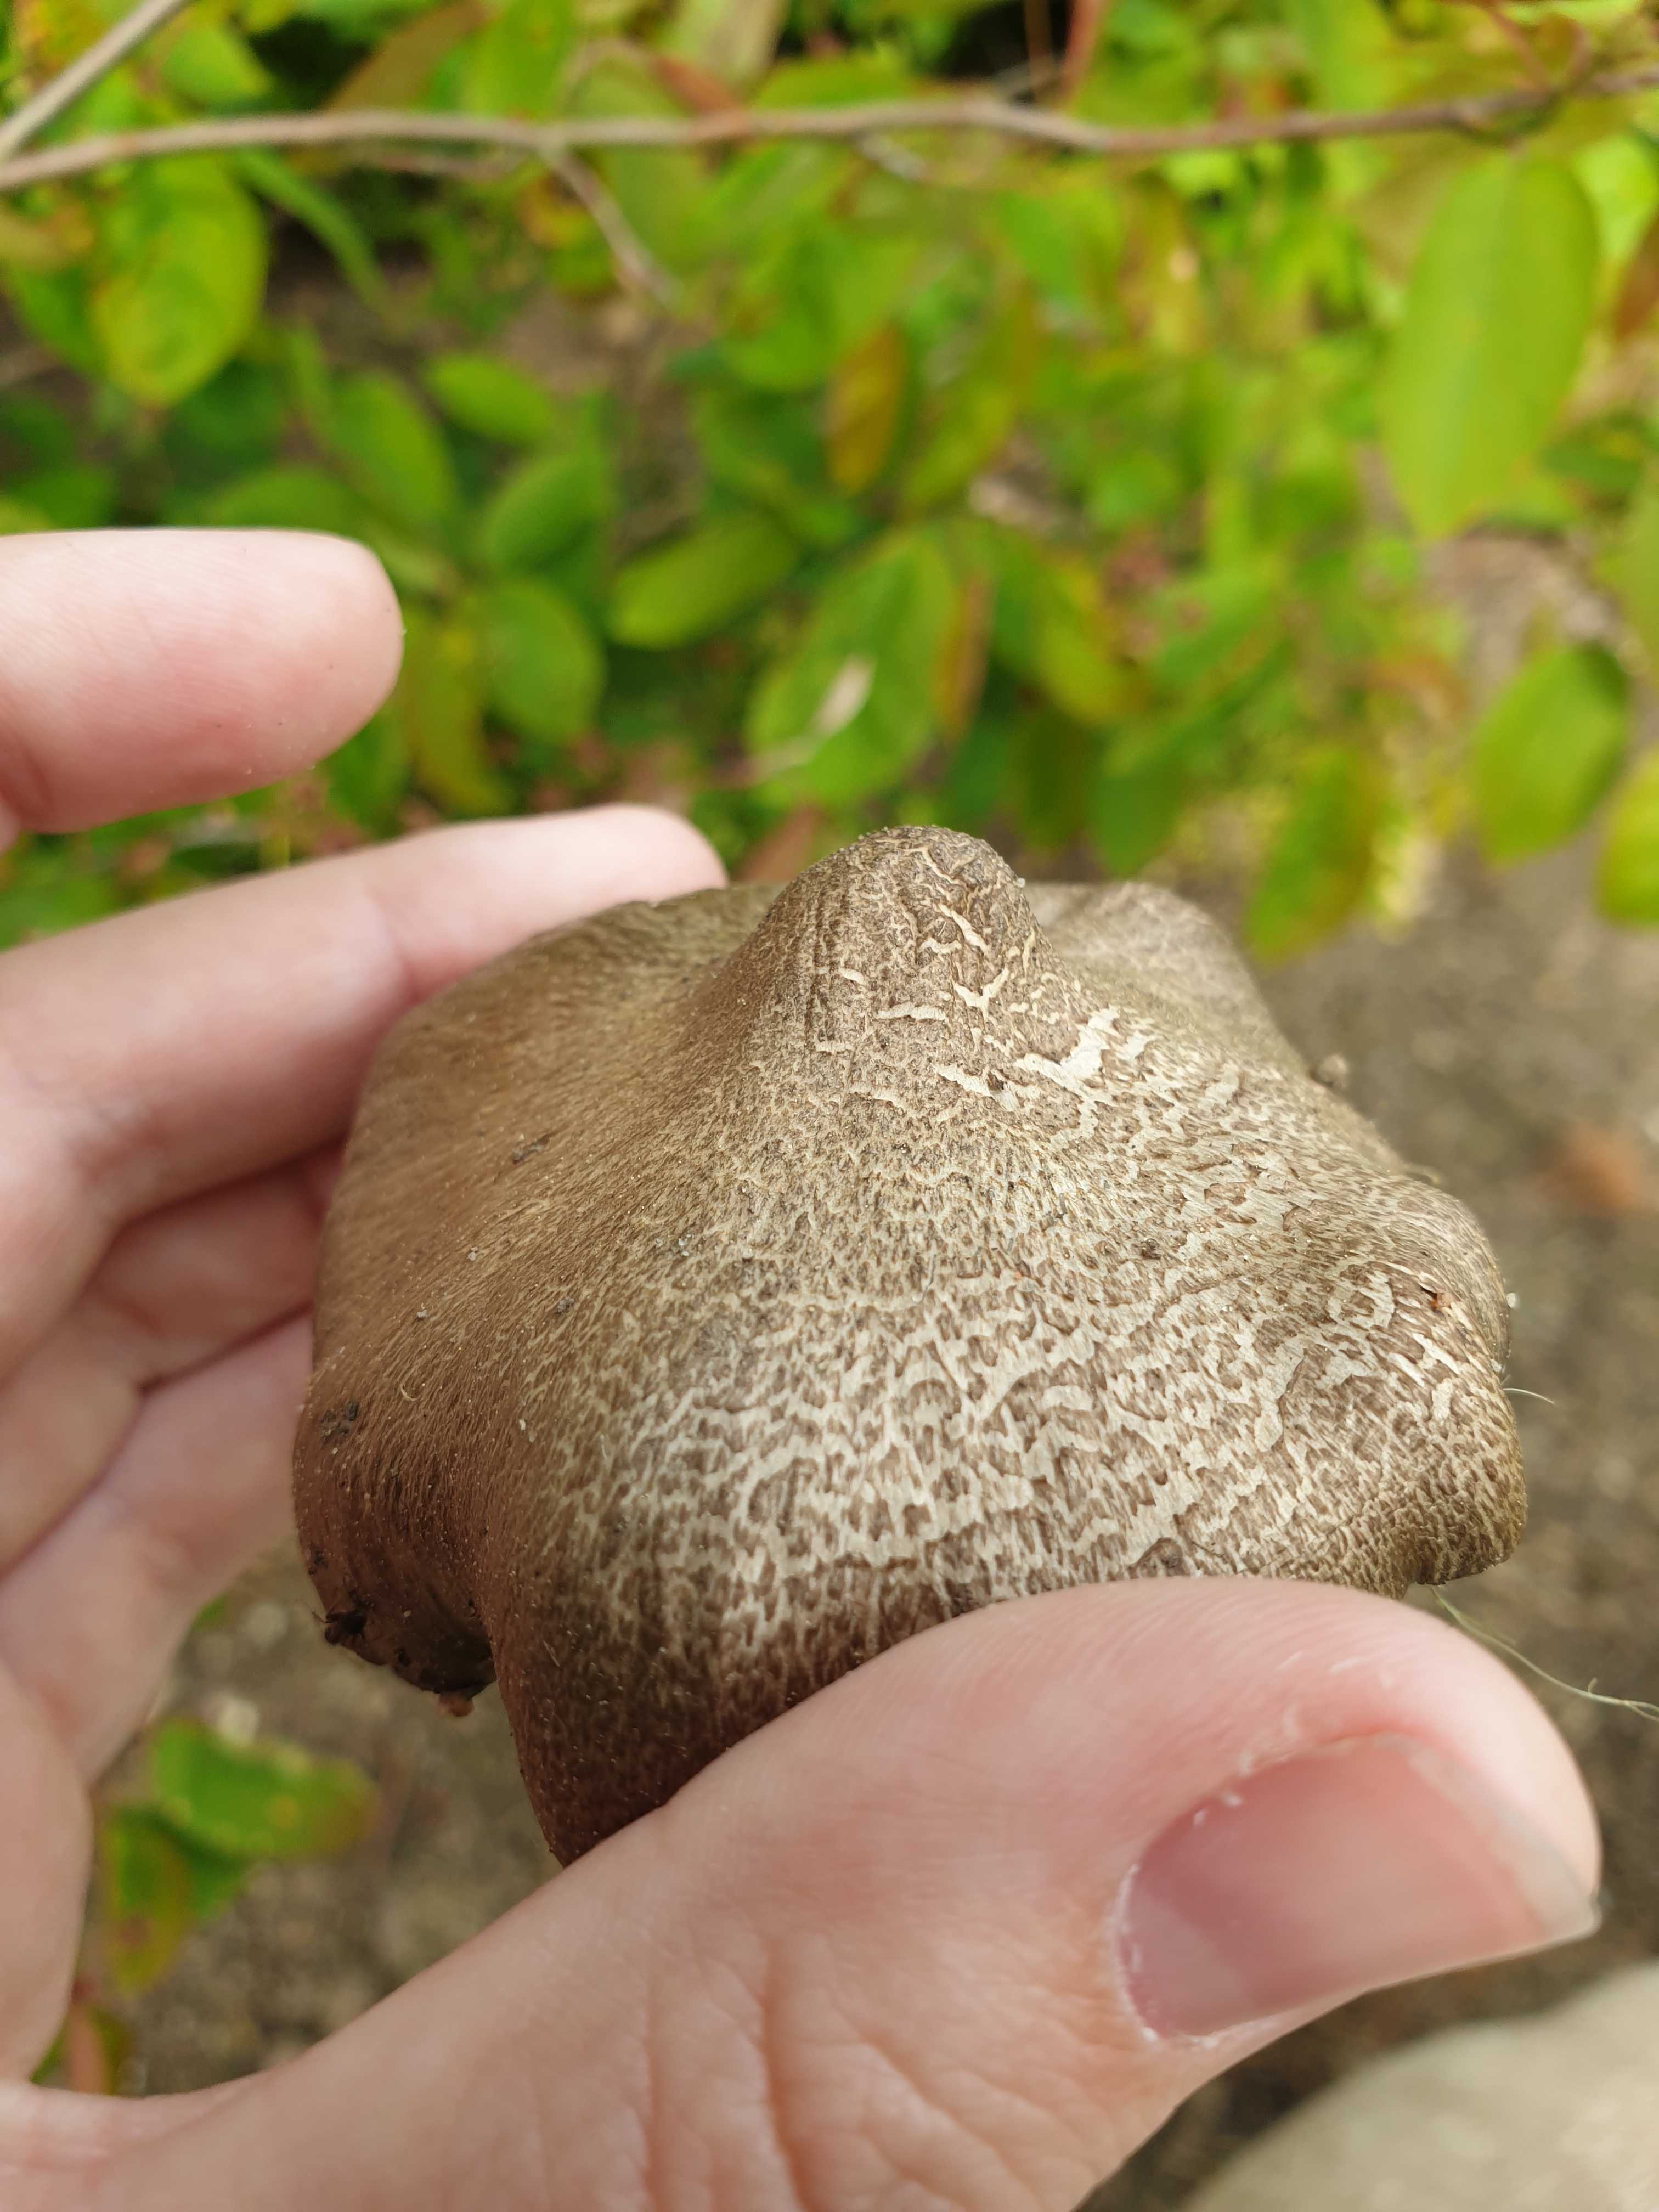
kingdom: Fungi
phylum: Basidiomycota
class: Agaricomycetes
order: Agaricales
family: Entolomataceae
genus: Entoloma
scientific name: Entoloma
